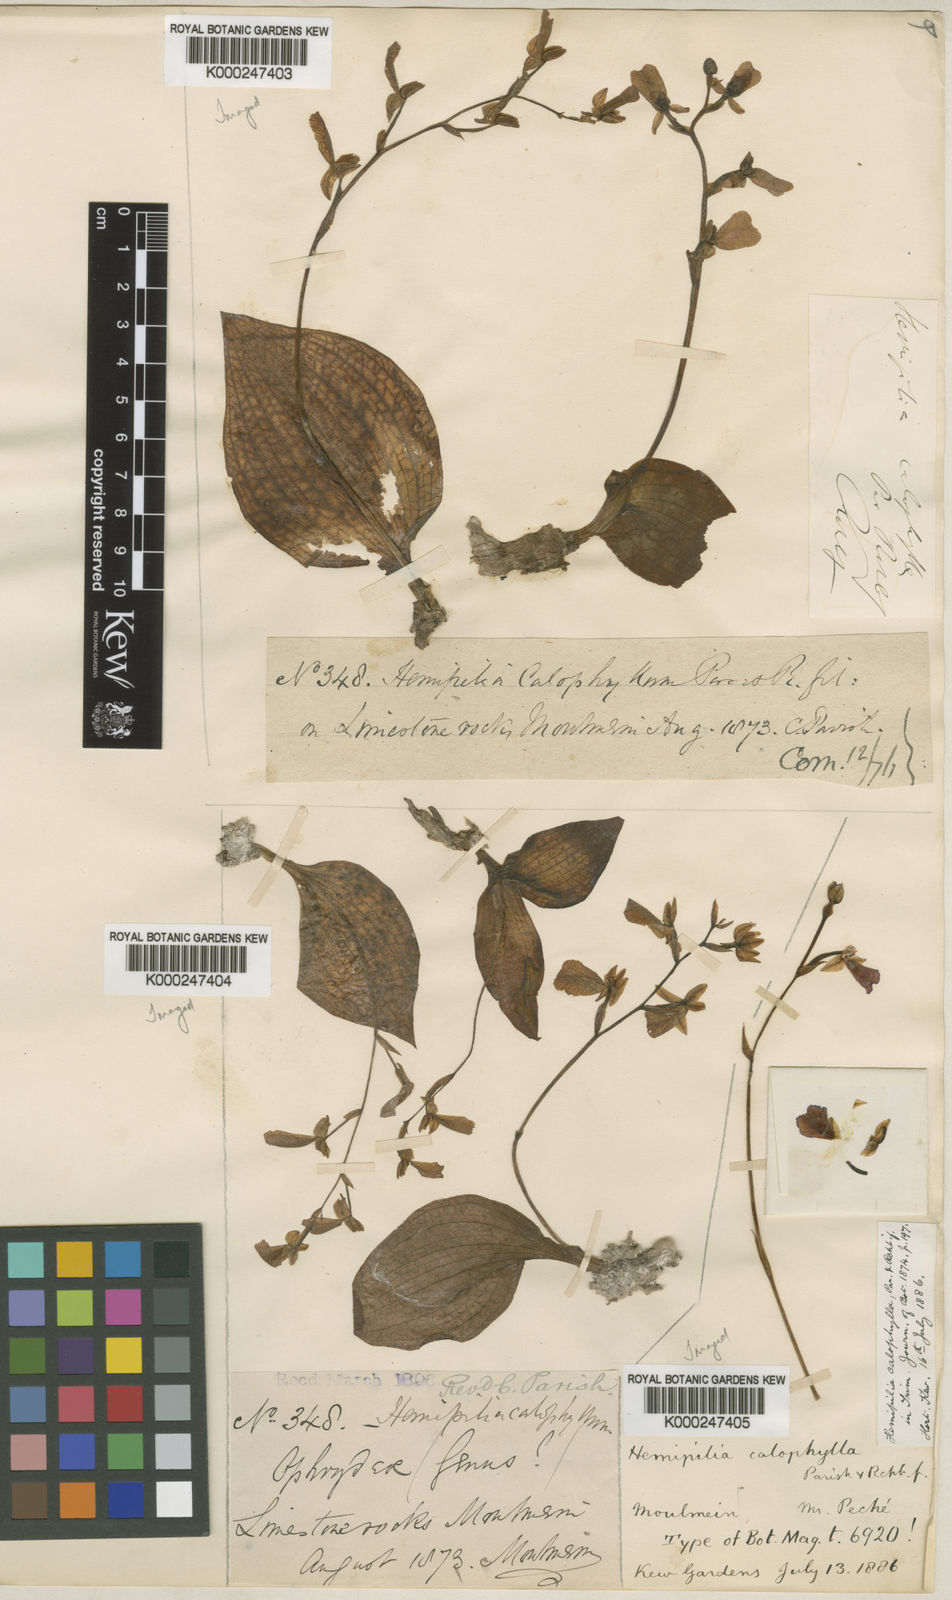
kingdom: Plantae
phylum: Tracheophyta
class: Liliopsida
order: Asparagales
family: Orchidaceae
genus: Hemipilia
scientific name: Hemipilia calophylla
